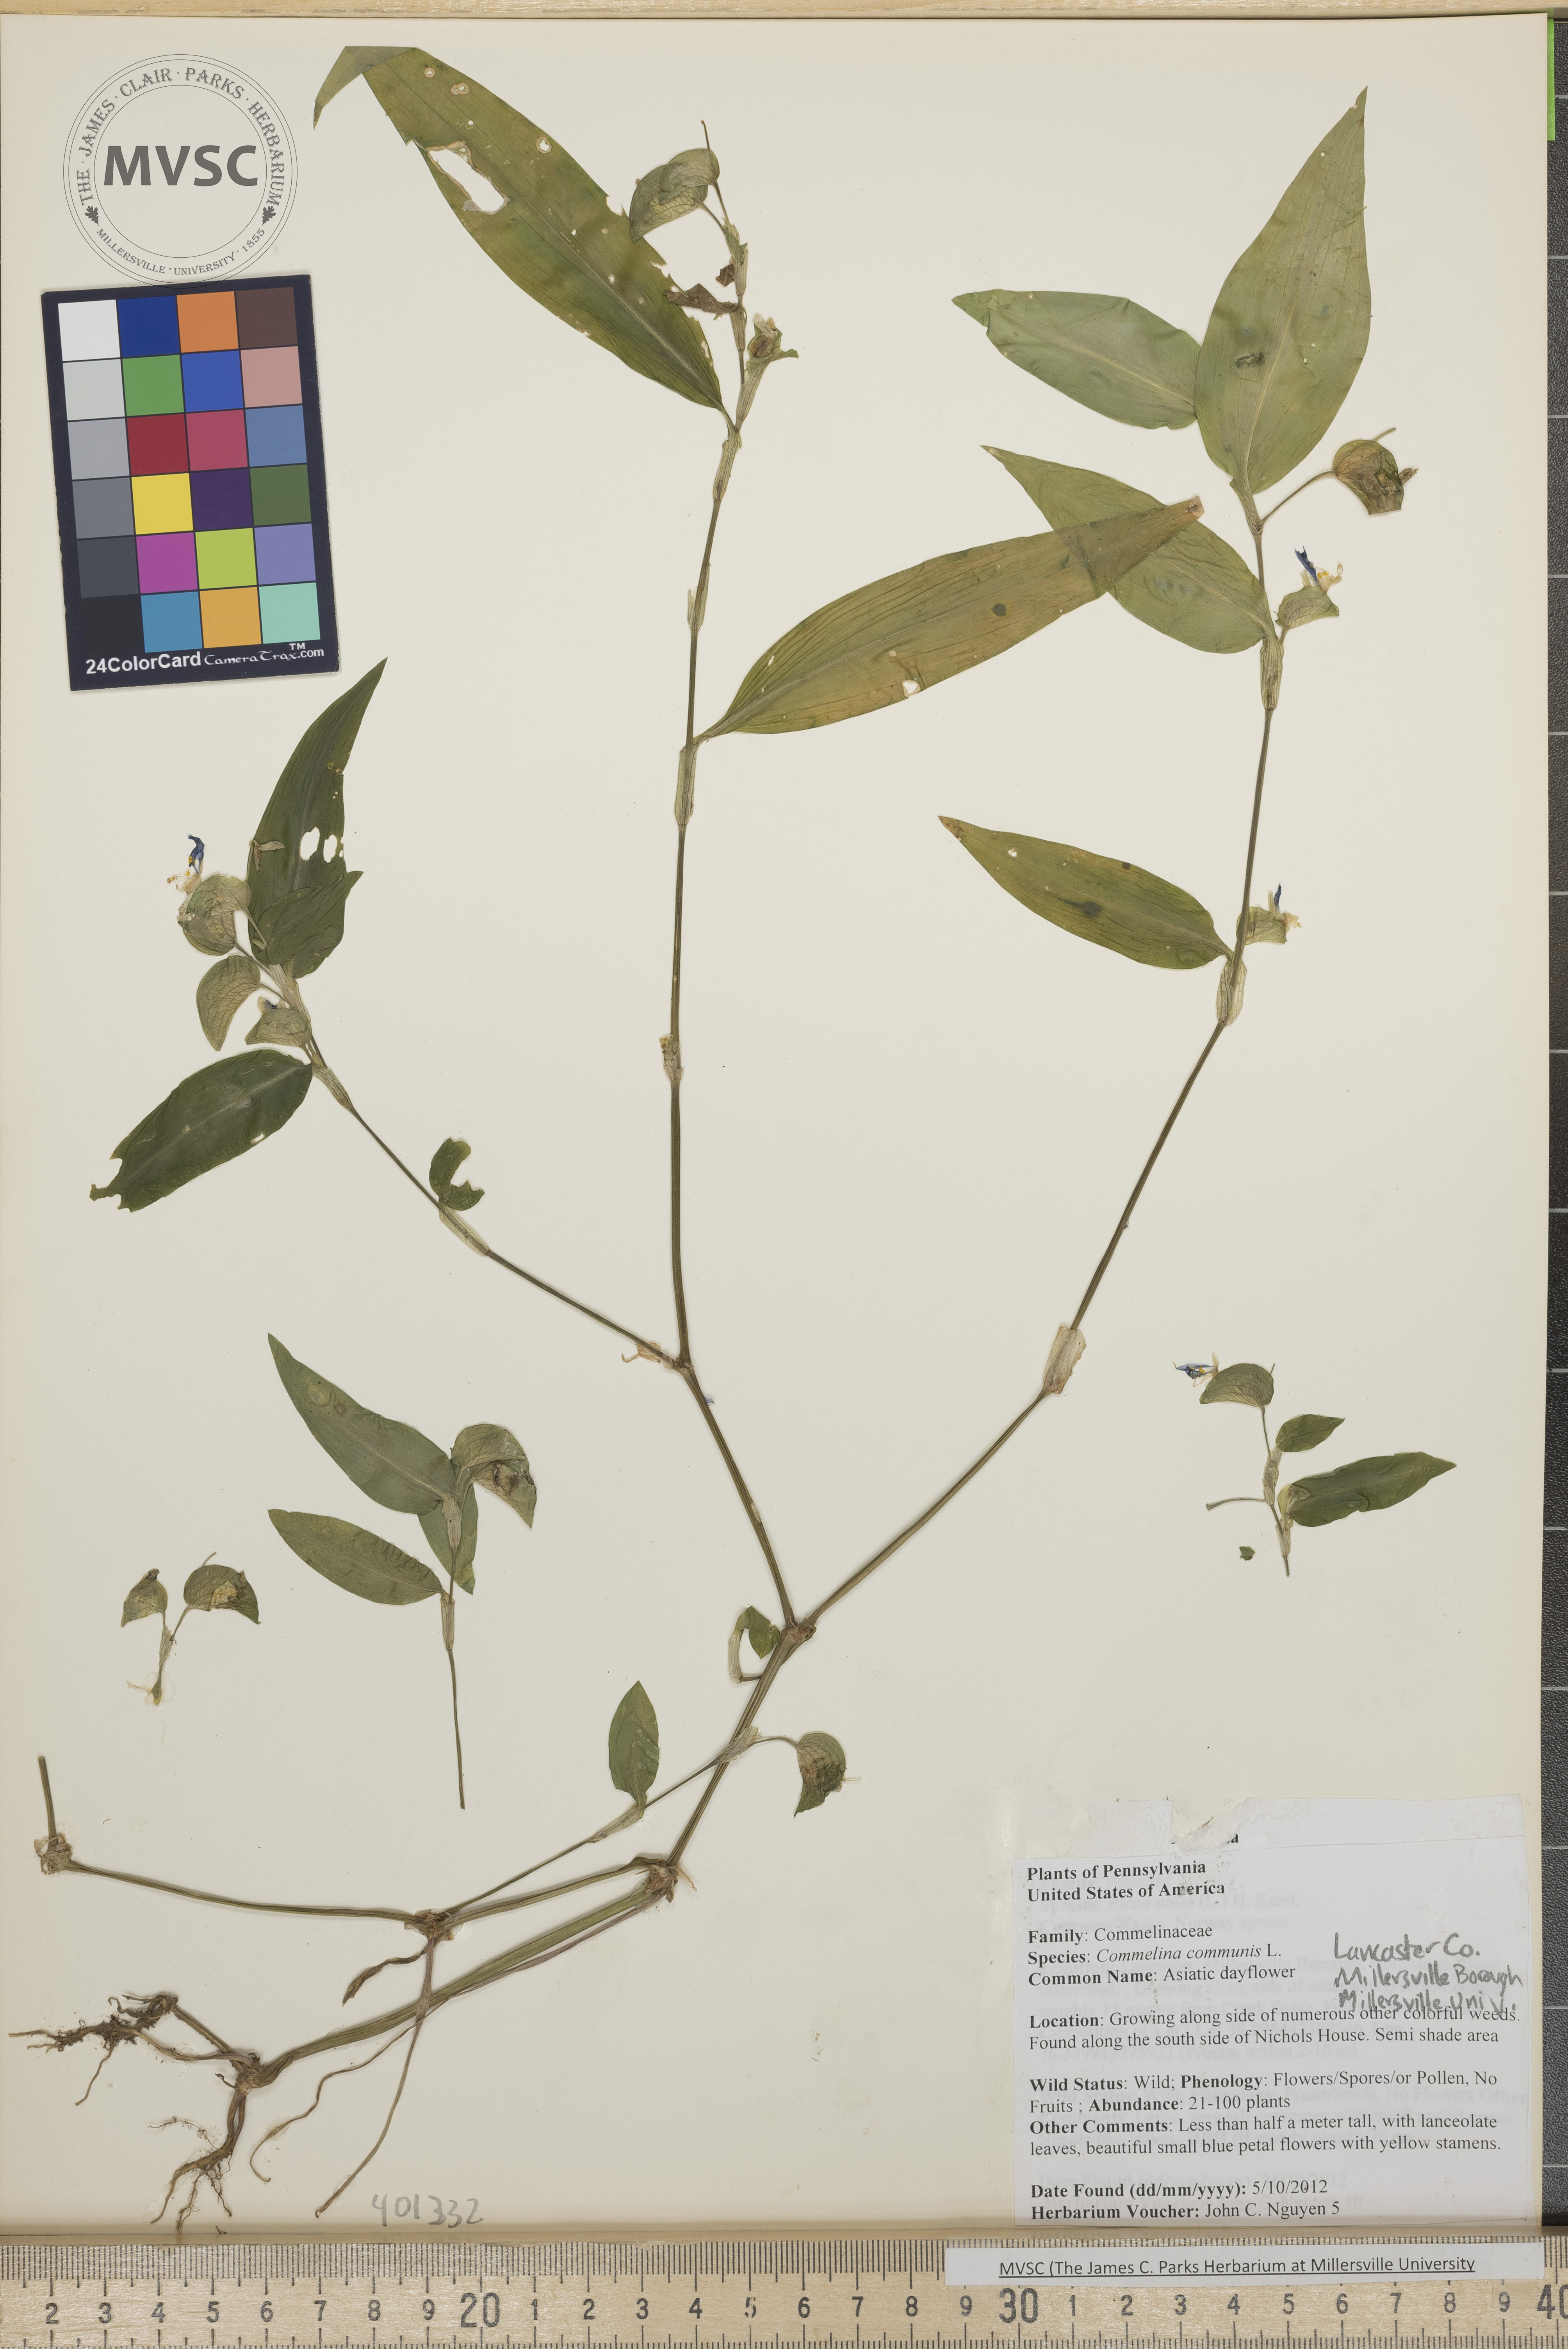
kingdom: Plantae
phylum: Tracheophyta
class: Liliopsida
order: Commelinales
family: Commelinaceae
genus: Commelina
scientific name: Commelina communis
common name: Asiatic dayflower
